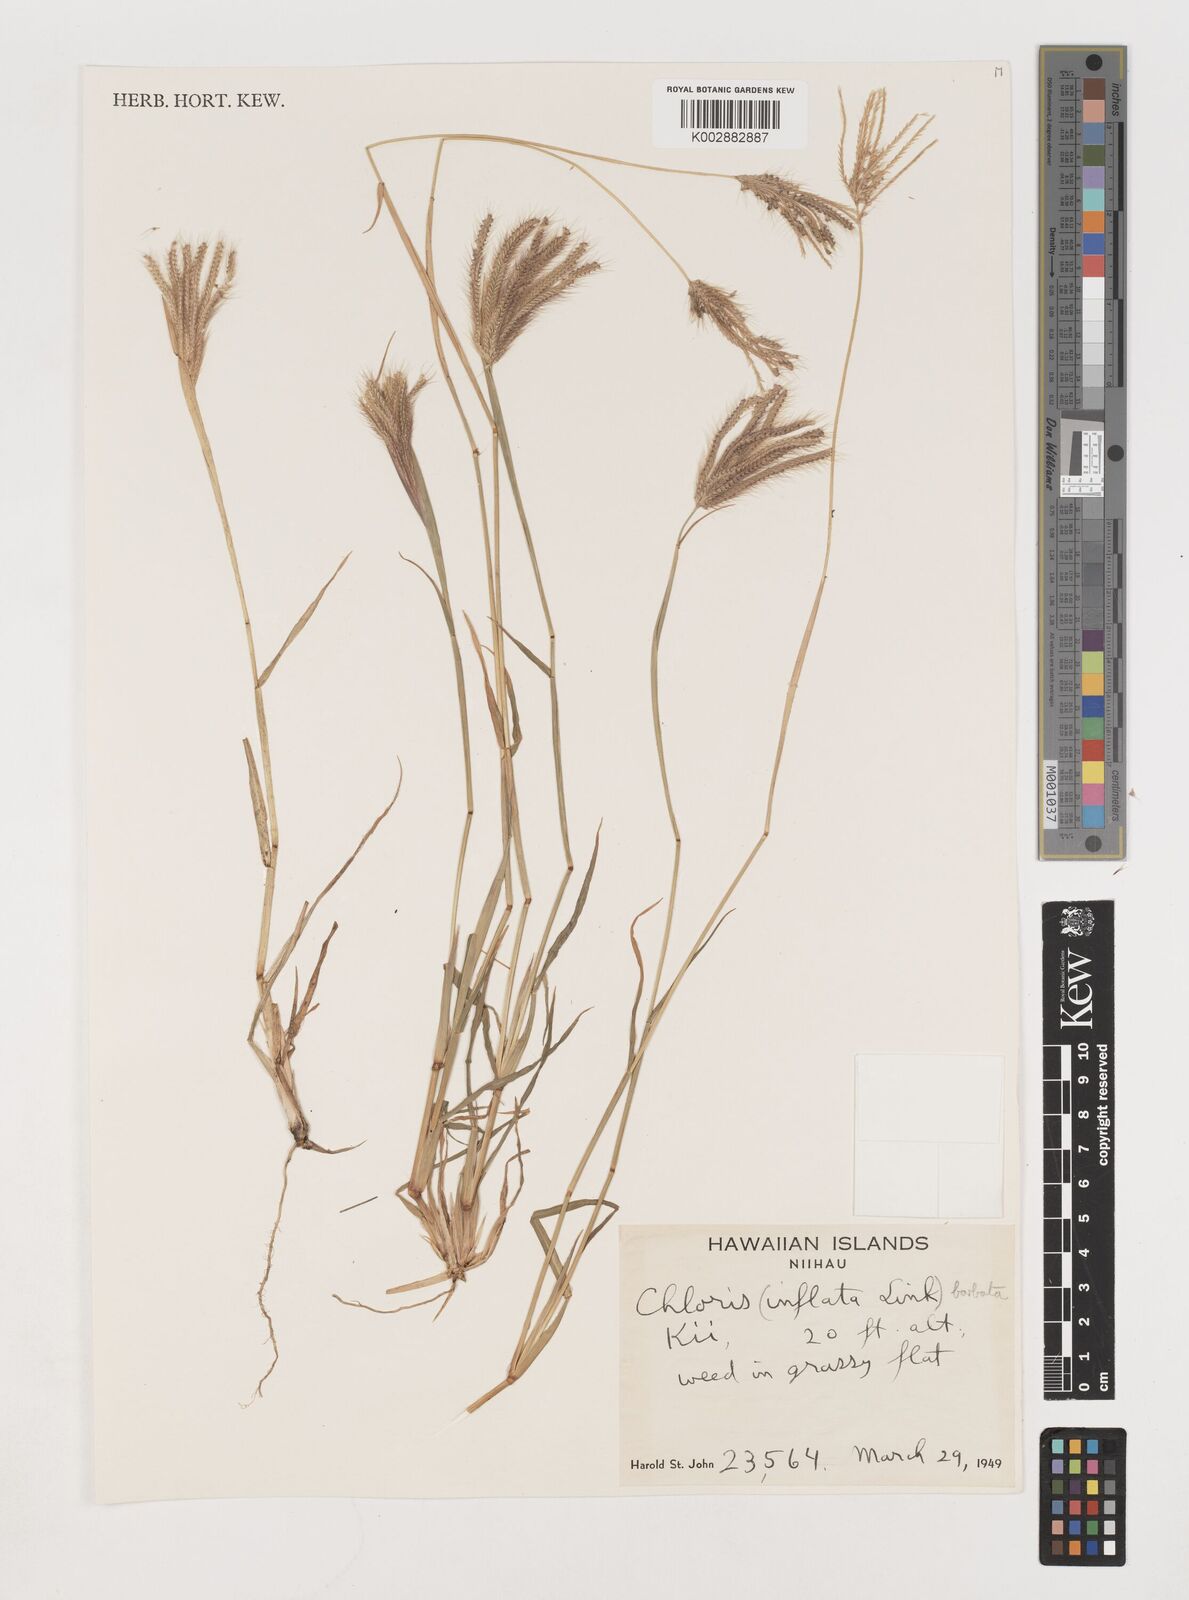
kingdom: Plantae
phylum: Tracheophyta
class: Liliopsida
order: Poales
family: Poaceae
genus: Chloris
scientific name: Chloris barbata
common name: Swollen fingergrass
